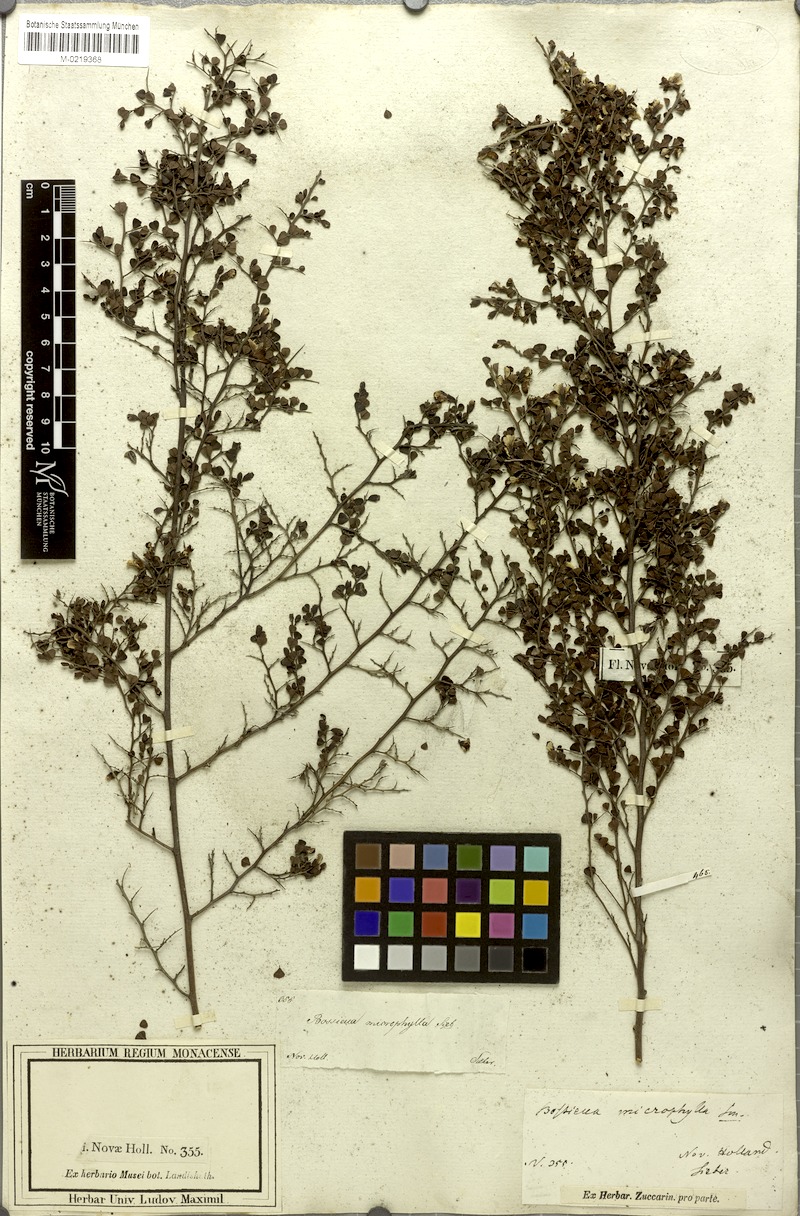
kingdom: Plantae
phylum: Tracheophyta
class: Magnoliopsida
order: Fabales
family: Fabaceae
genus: Bossiaea
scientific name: Bossiaea obcordata
